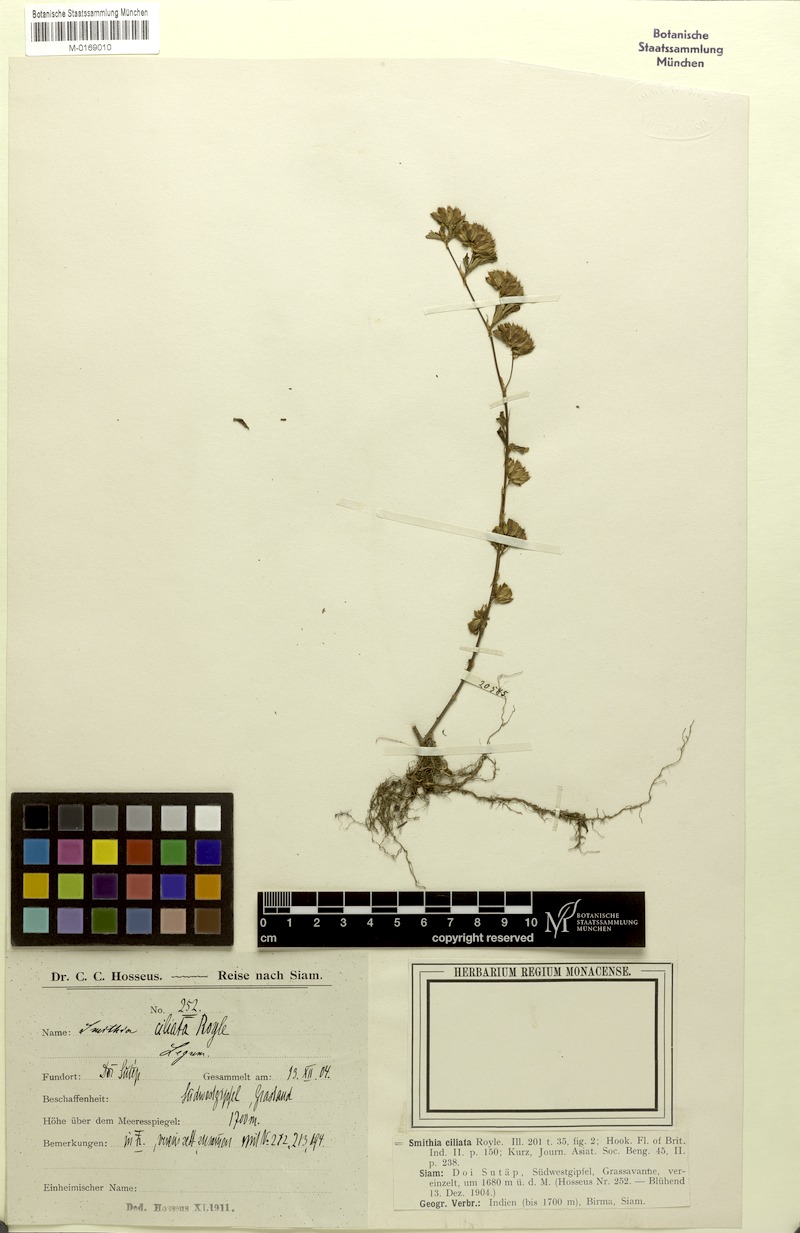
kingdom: Plantae
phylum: Tracheophyta
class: Magnoliopsida
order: Fabales
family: Fabaceae
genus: Smithia
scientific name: Smithia ciliata
